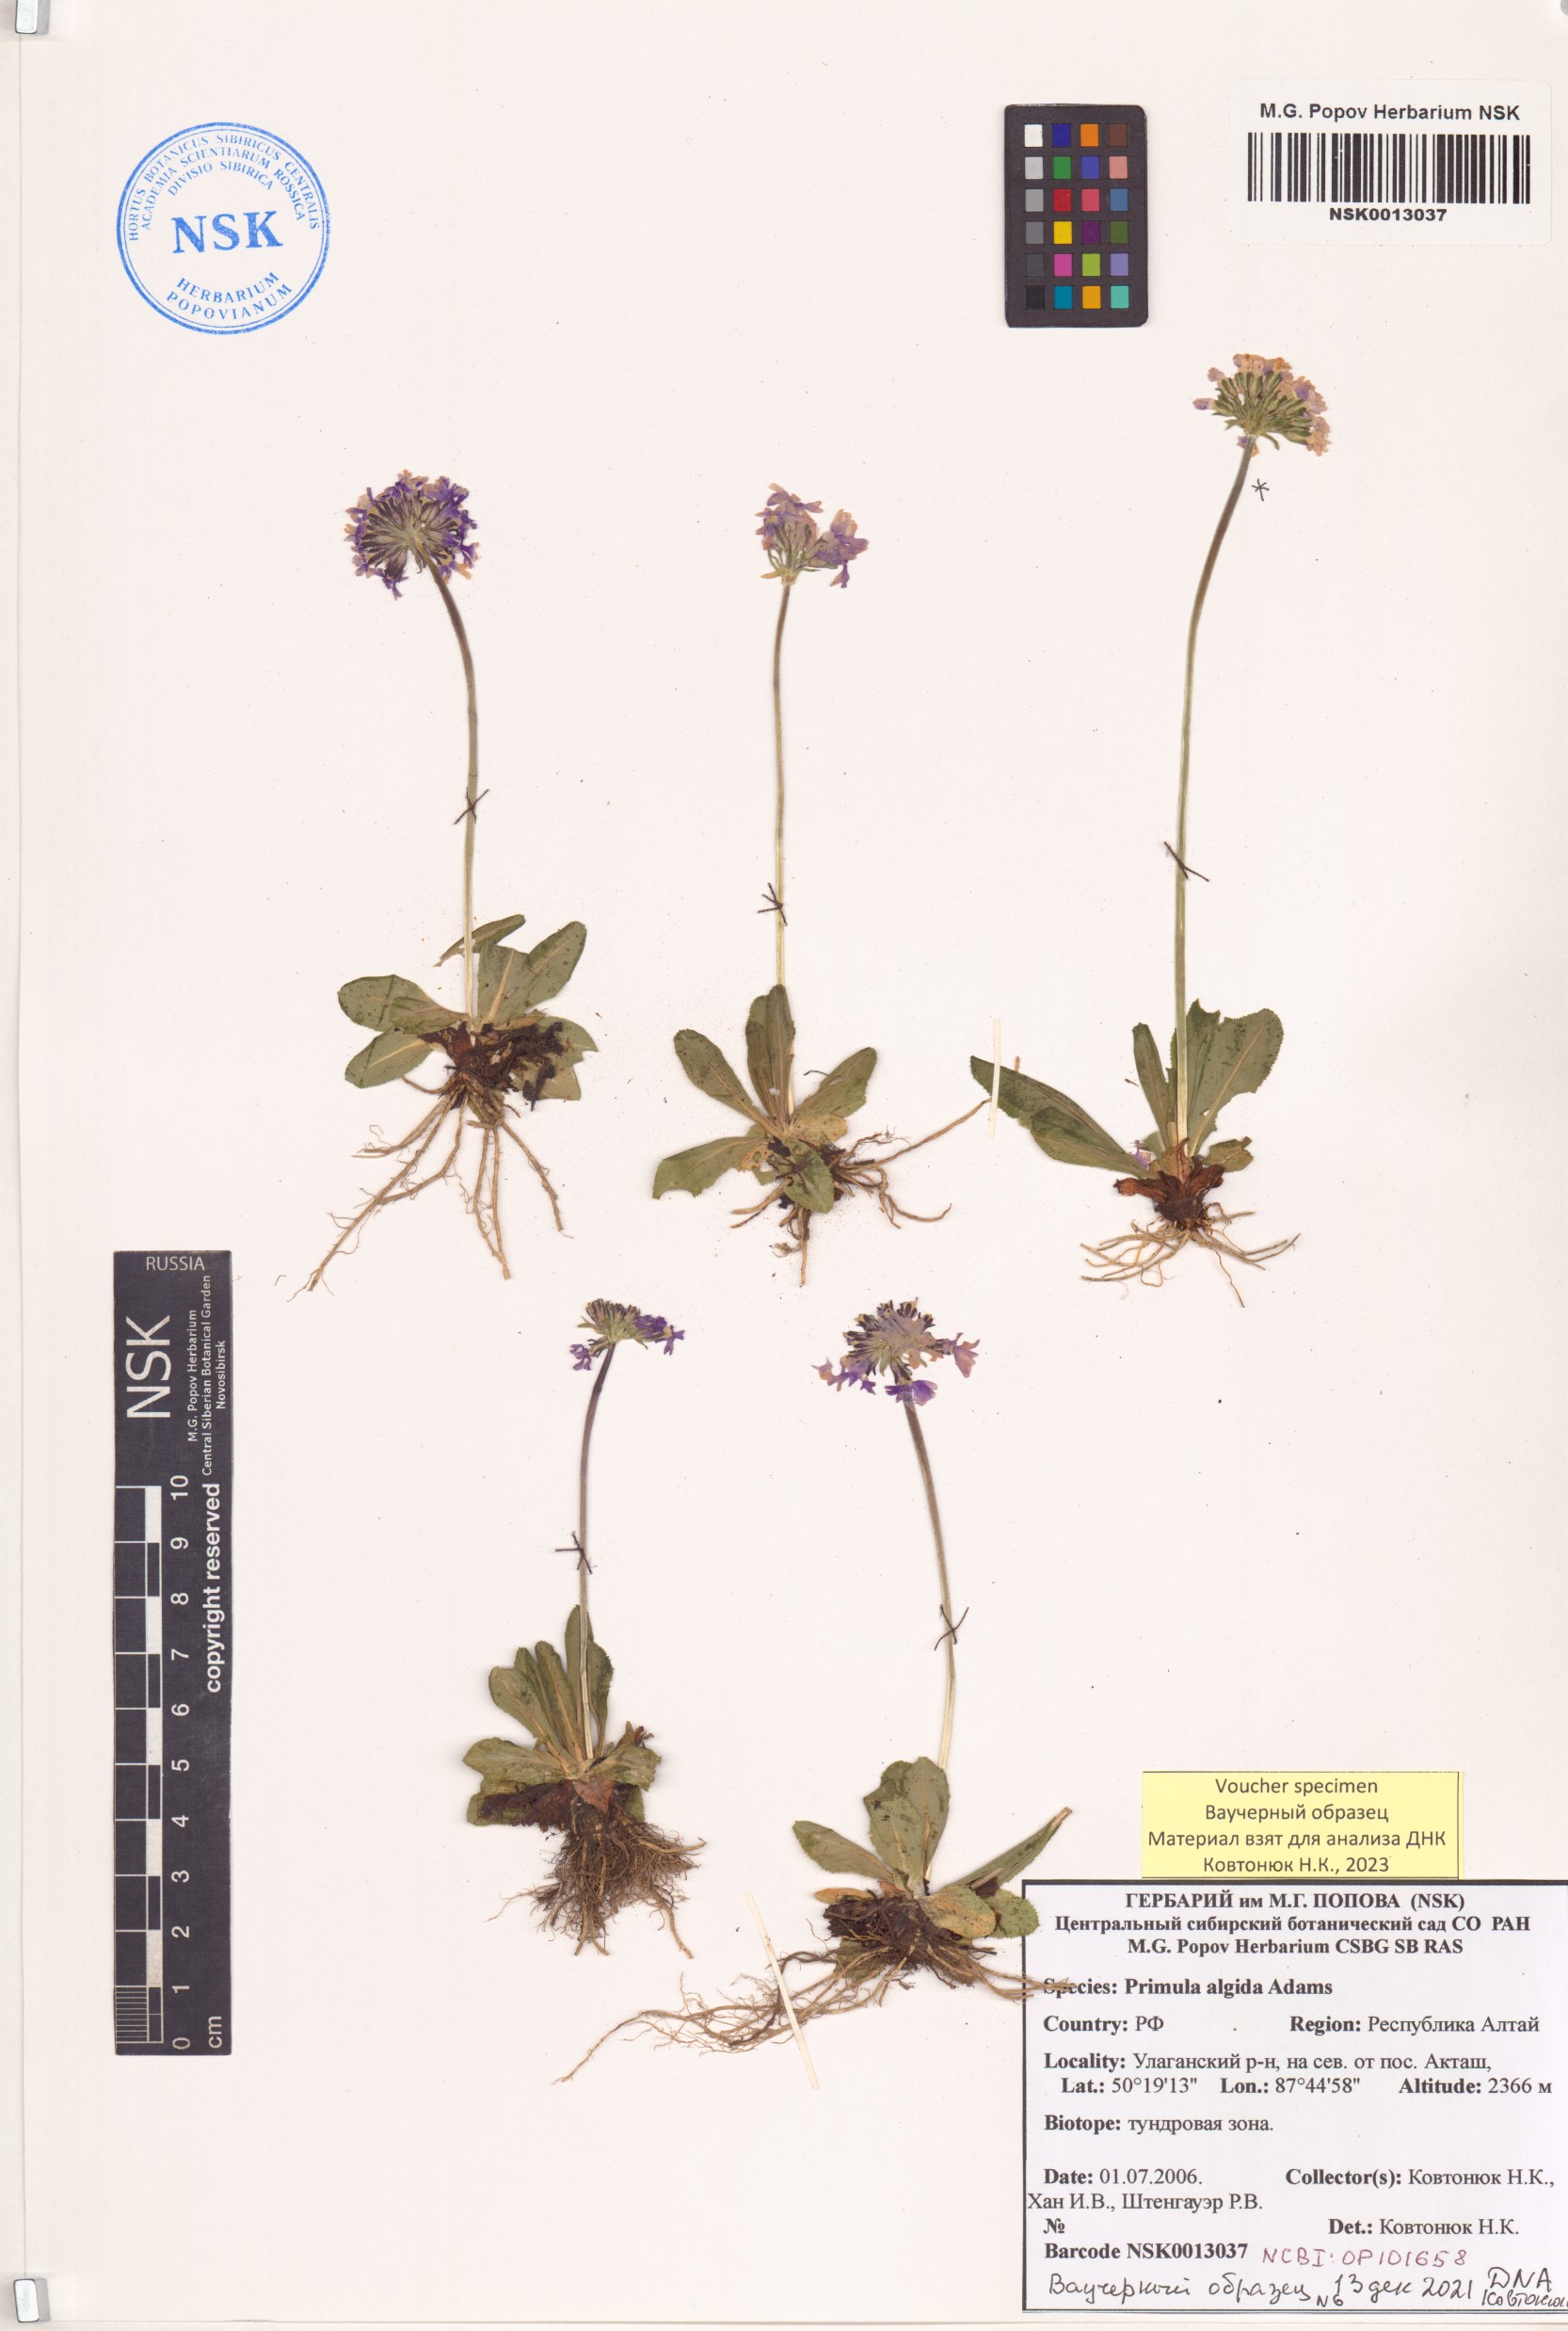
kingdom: Plantae
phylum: Tracheophyta
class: Magnoliopsida
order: Ericales
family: Primulaceae
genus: Primula
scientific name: Primula algida
